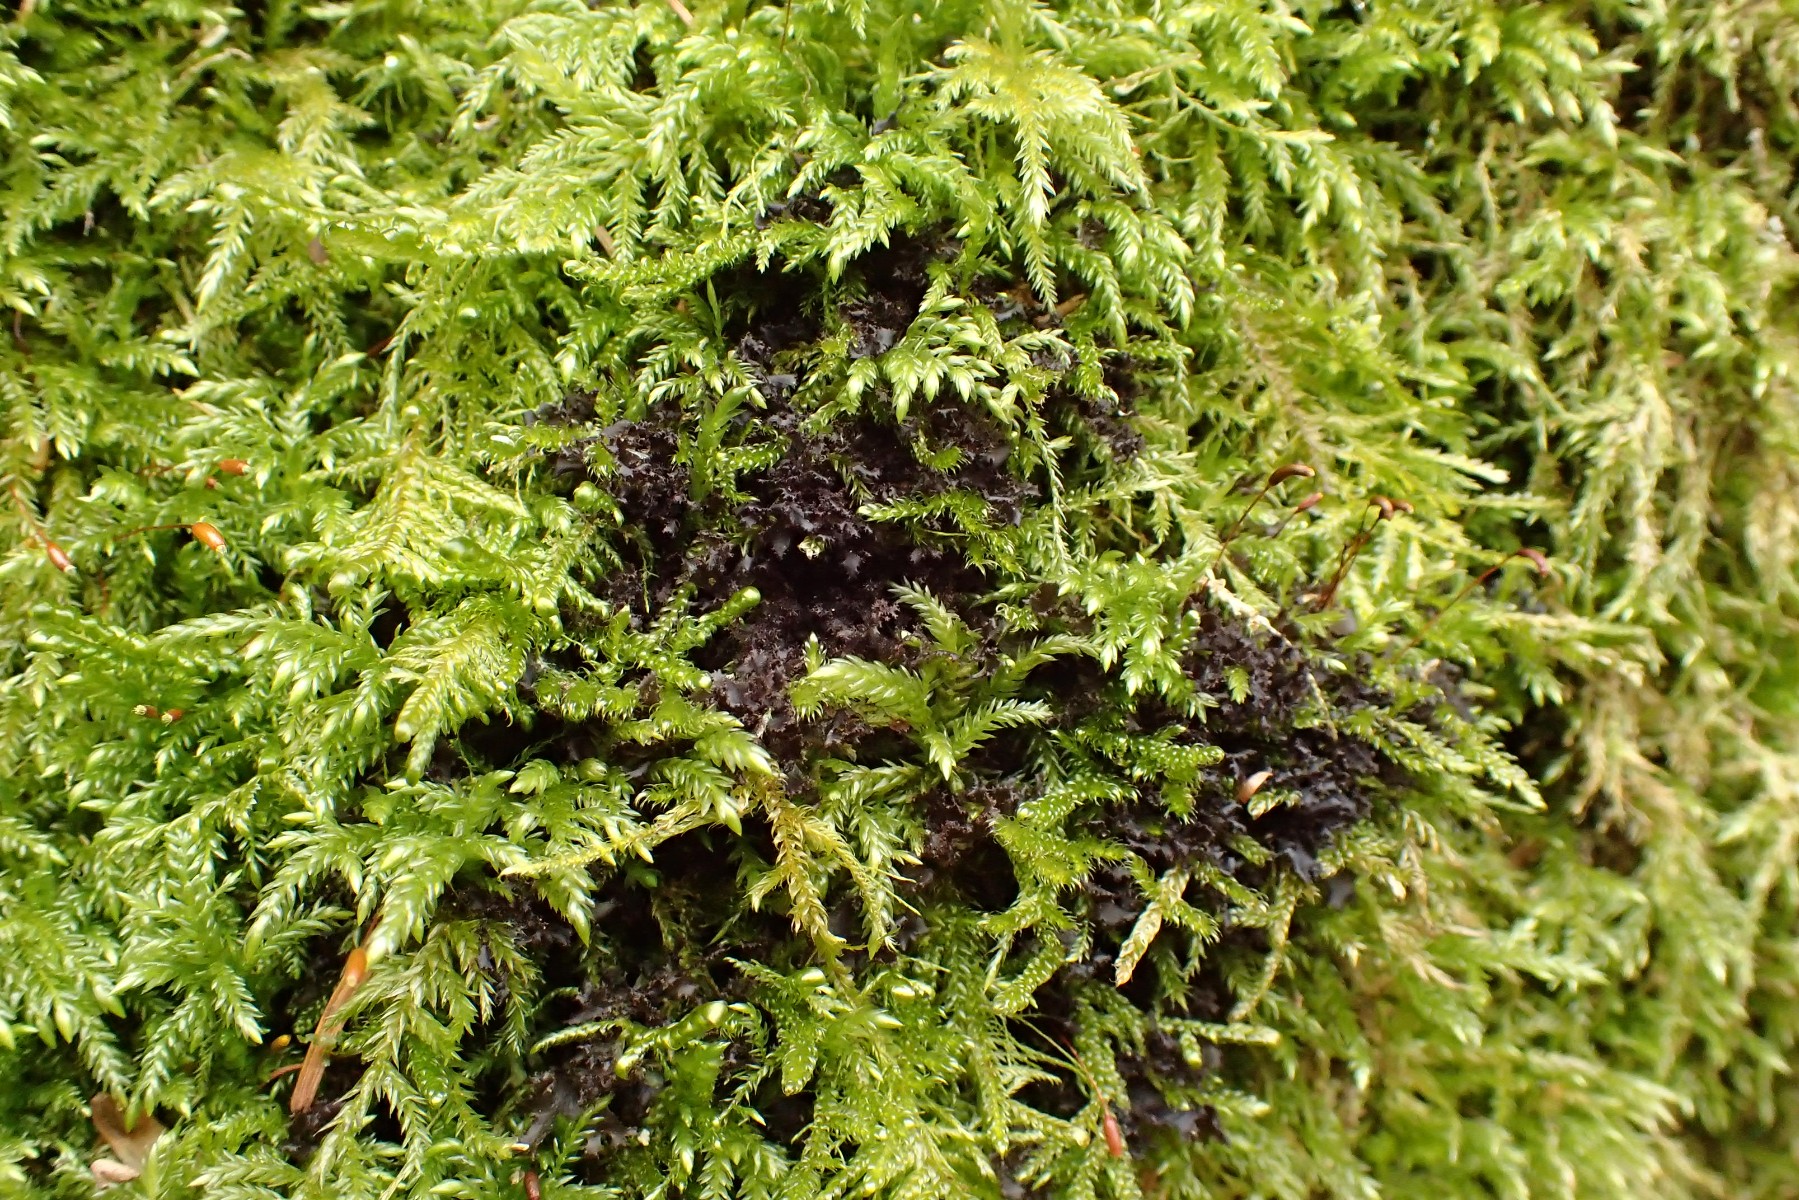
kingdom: Fungi
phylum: Ascomycota
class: Lecanoromycetes
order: Peltigerales
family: Collemataceae
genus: Scytinium
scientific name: Scytinium lichenoides
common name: frynset hindelav
